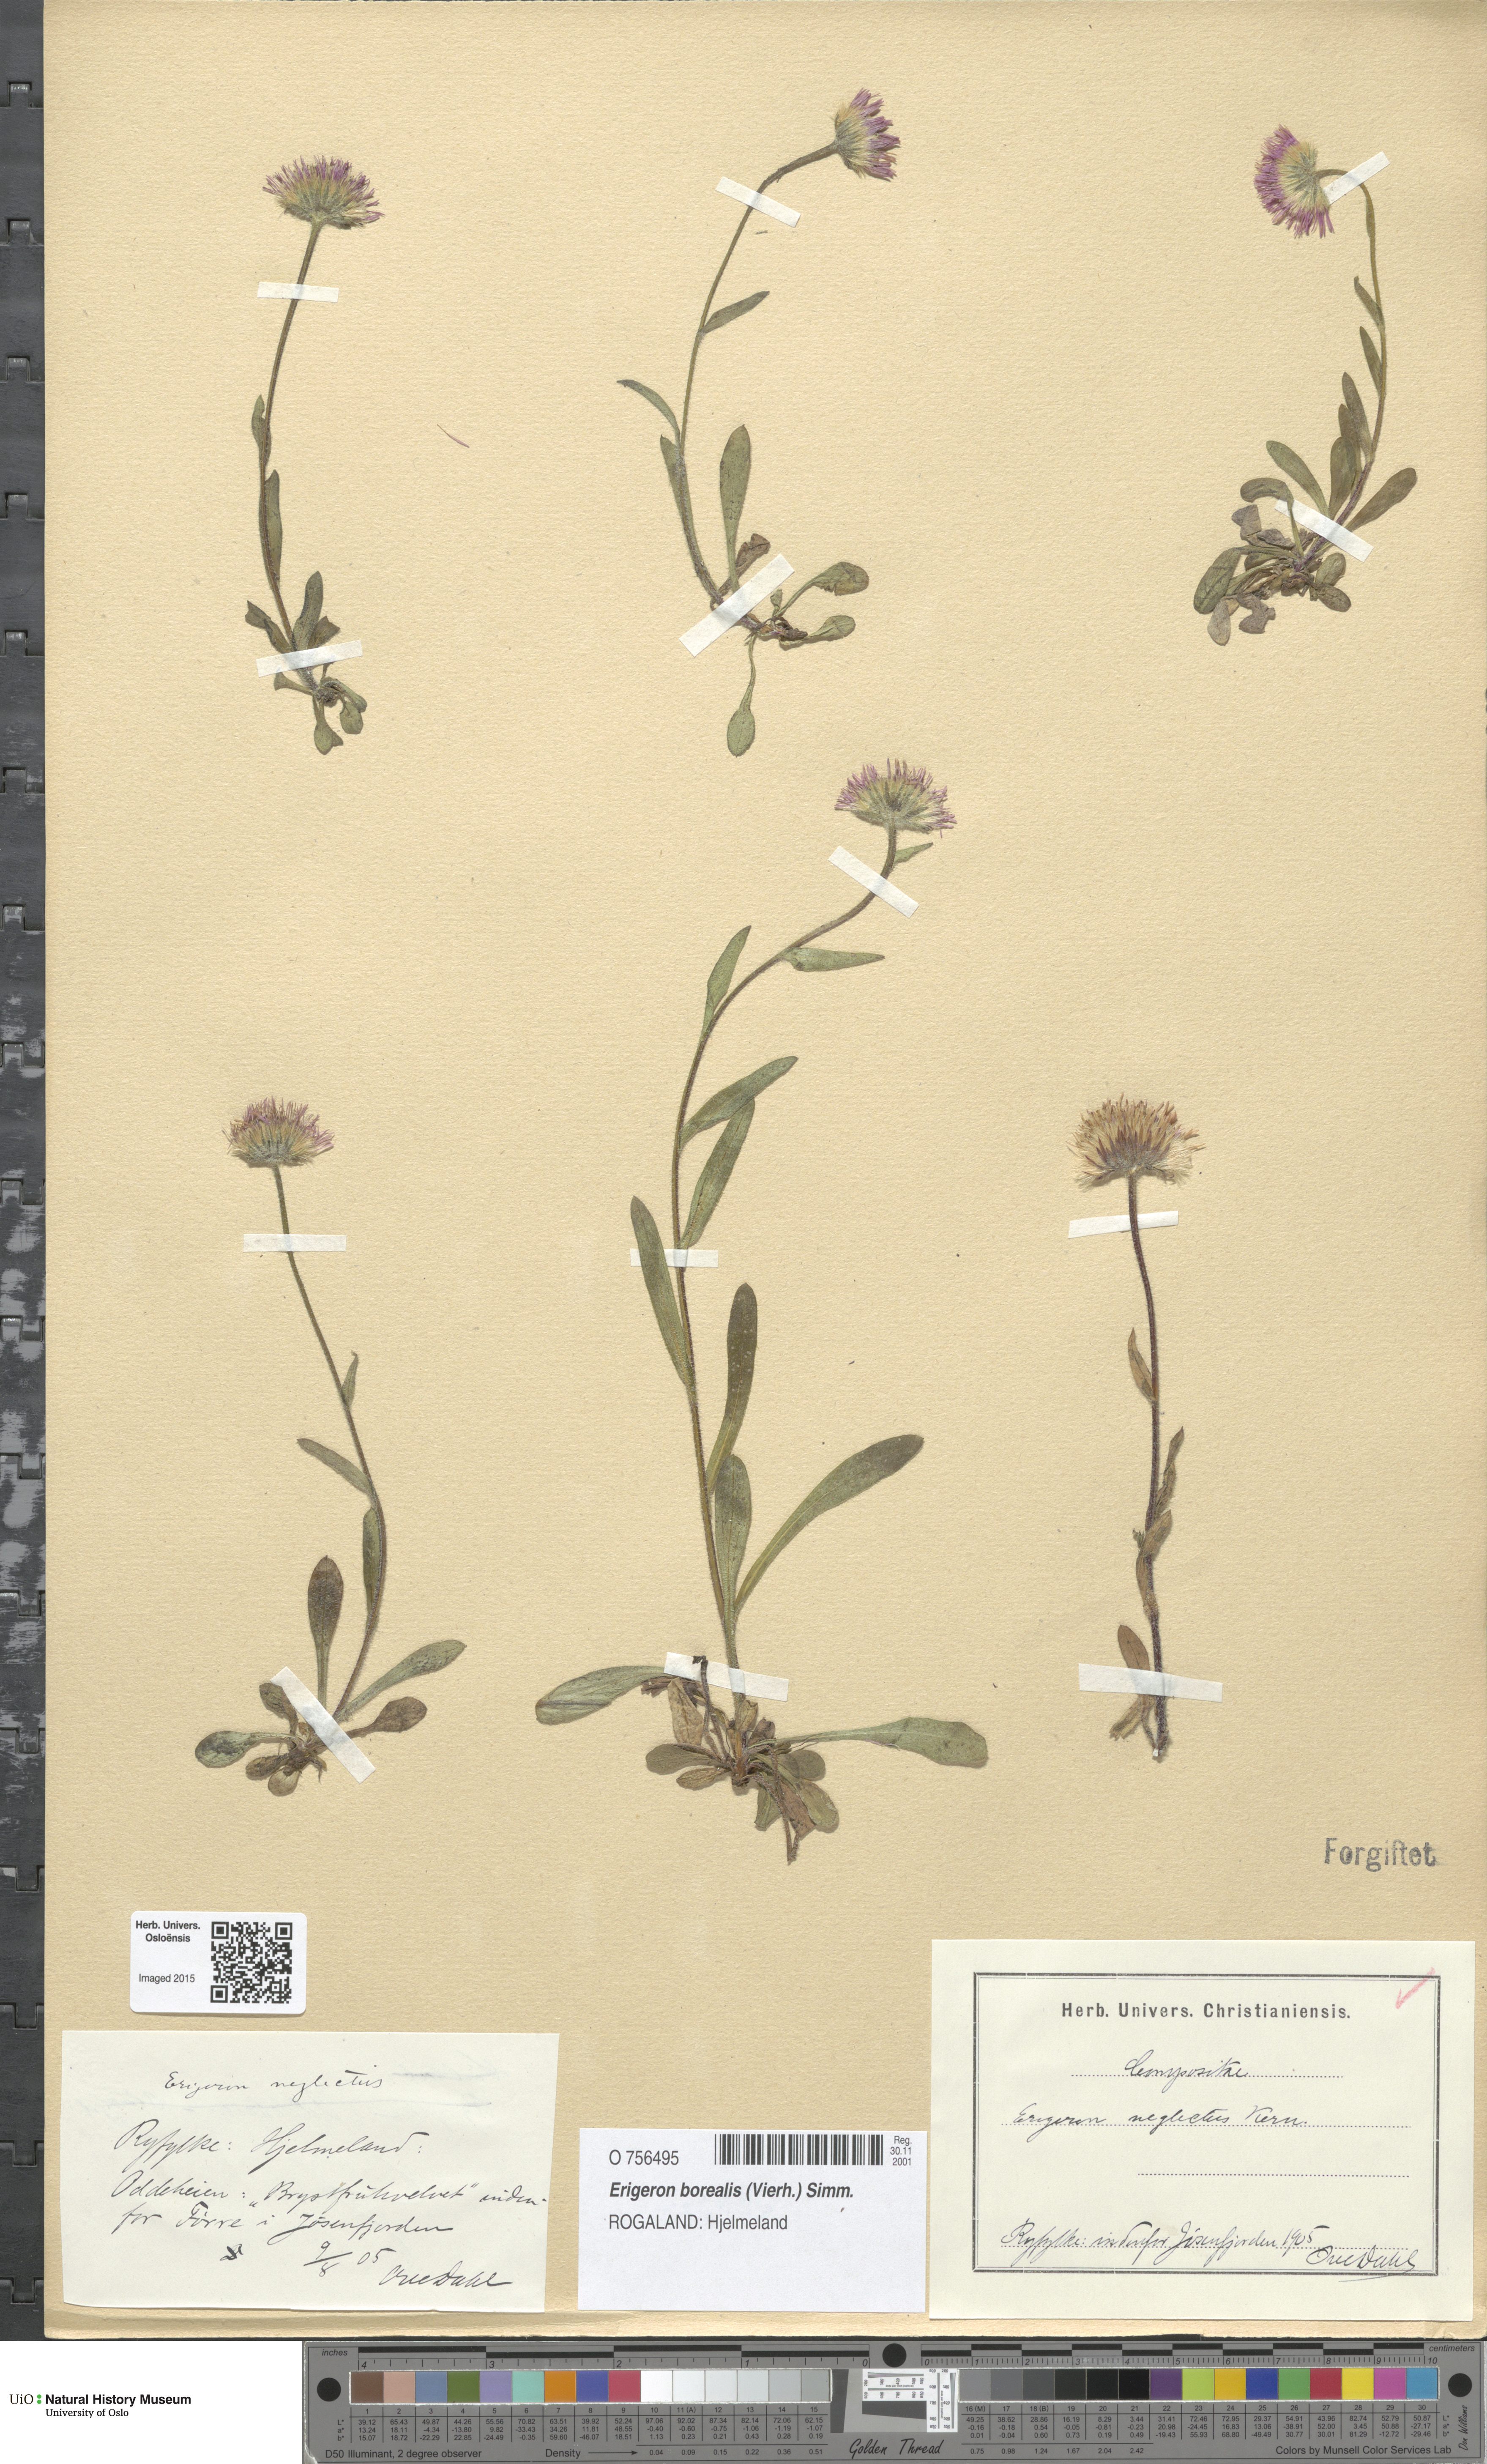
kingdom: Plantae
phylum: Tracheophyta
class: Magnoliopsida
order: Asterales
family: Asteraceae
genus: Erigeron
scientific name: Erigeron borealis
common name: Alpine fleabane
